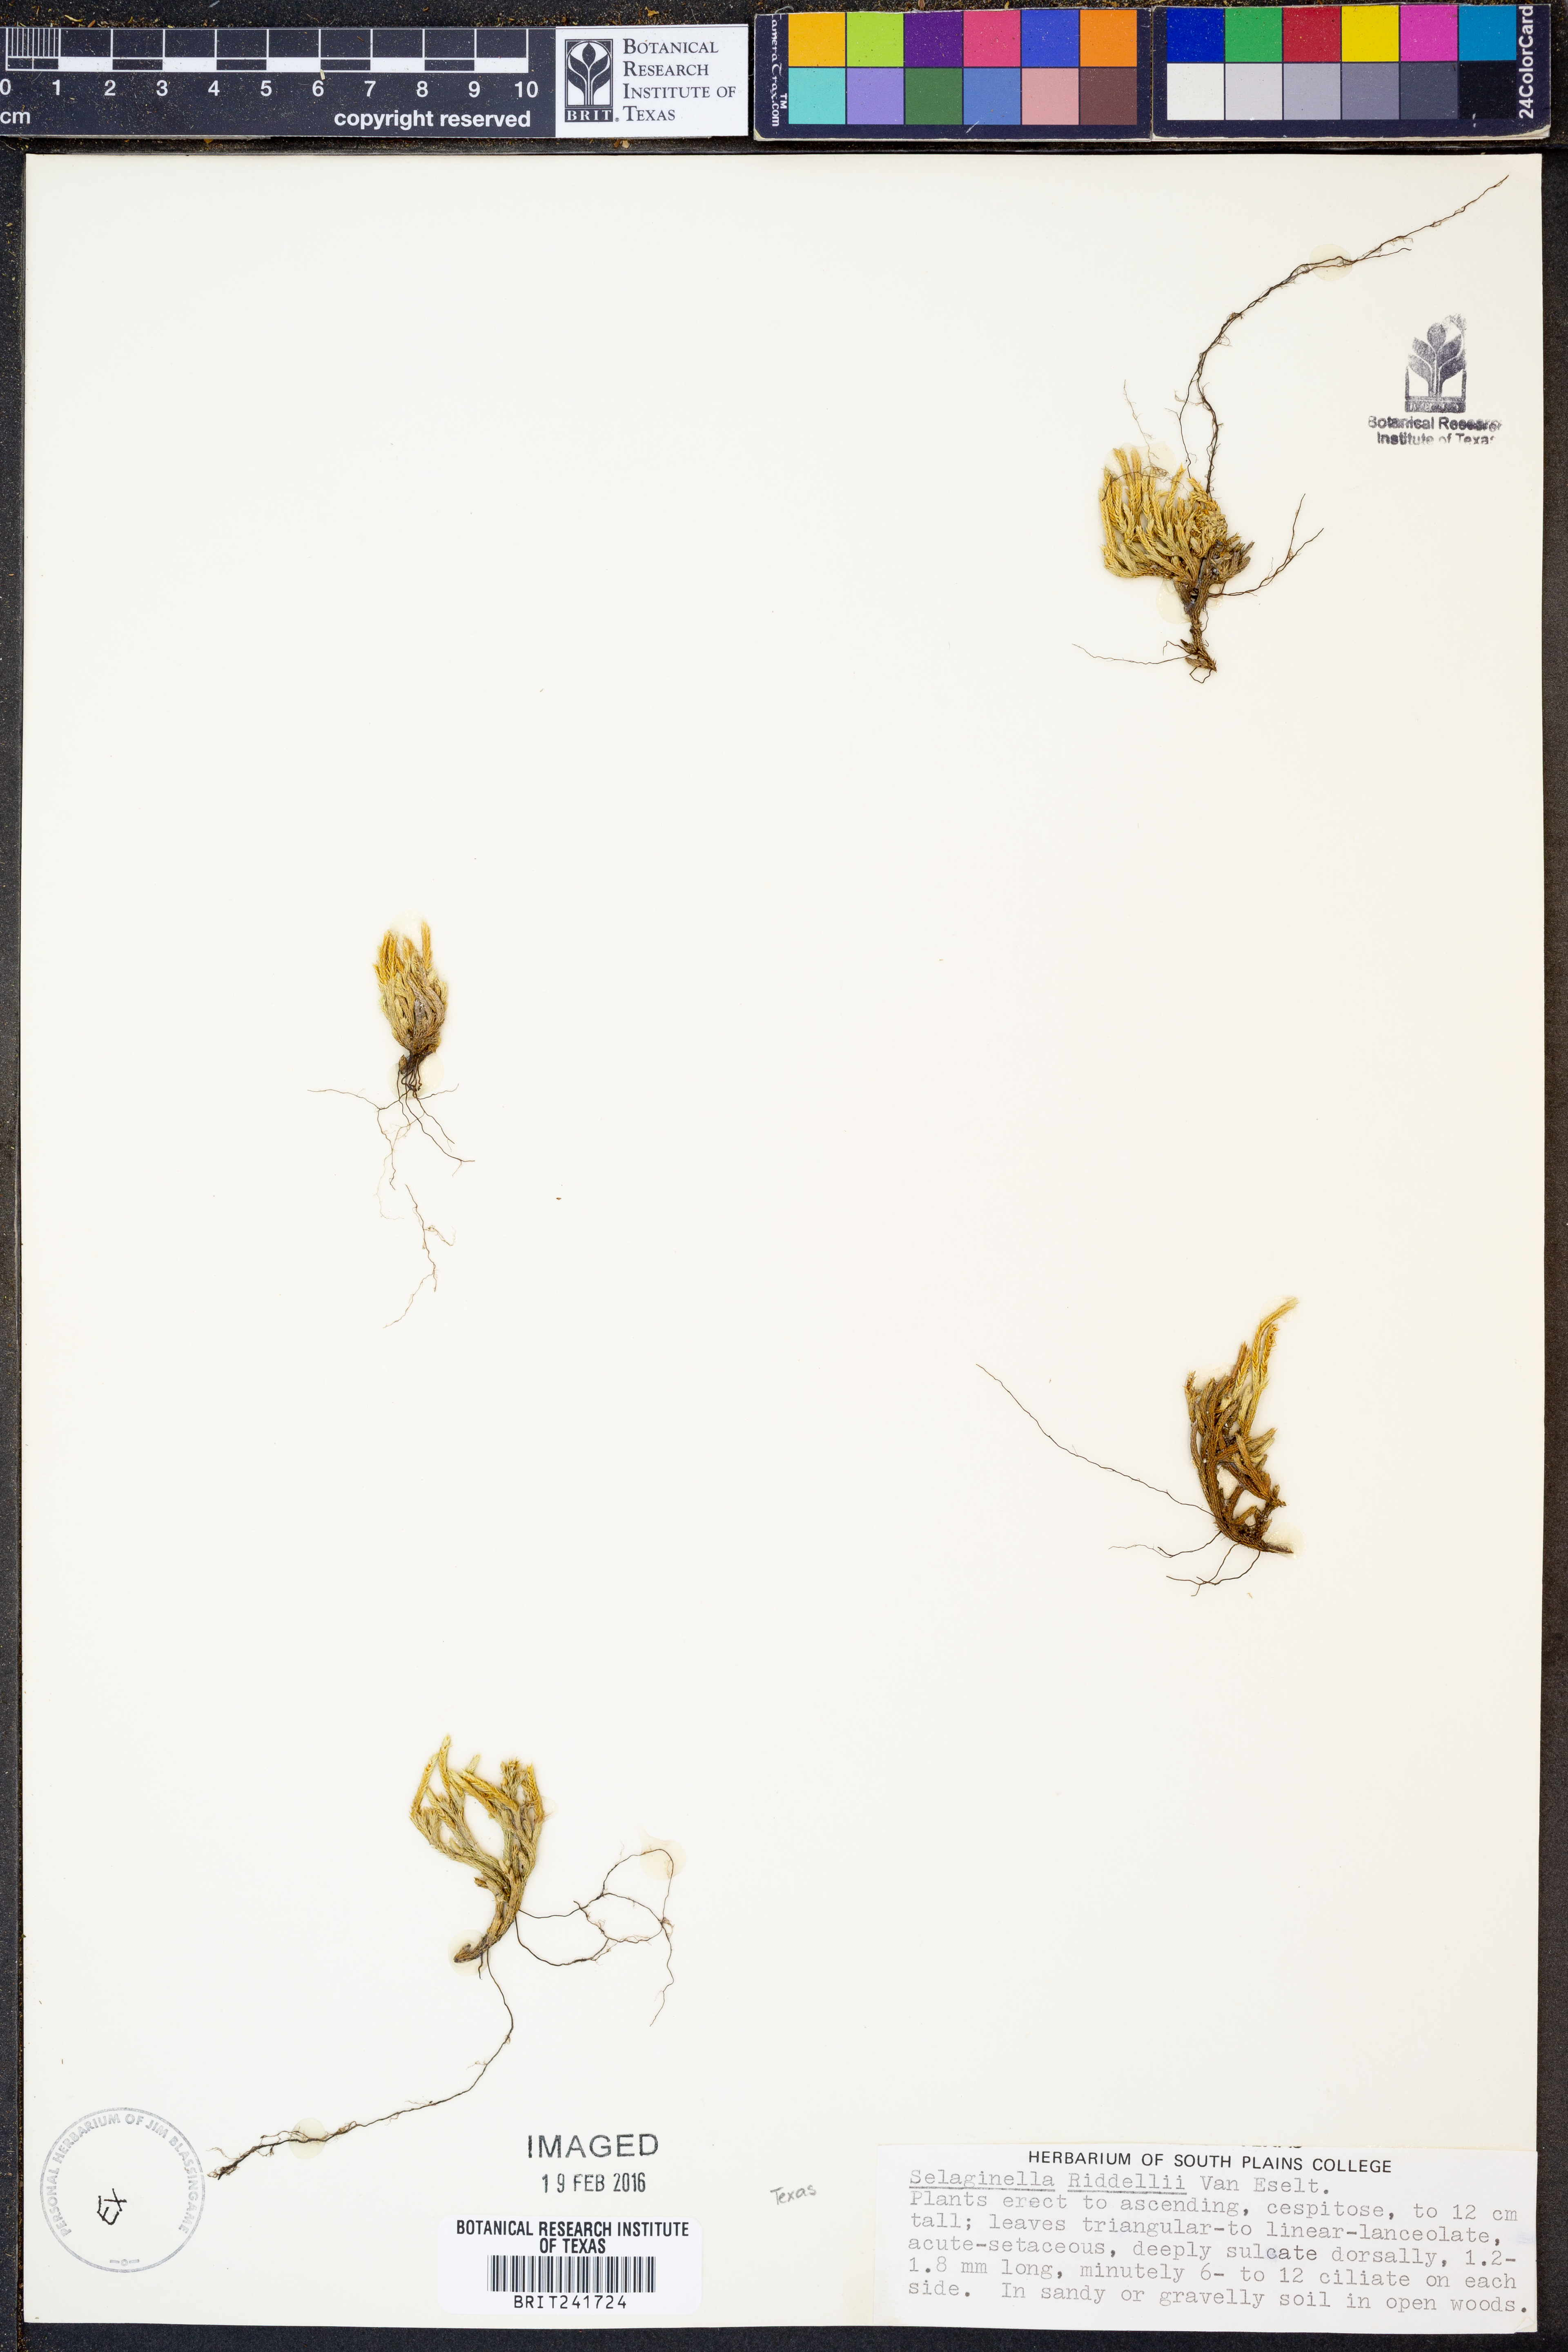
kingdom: Plantae
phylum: Tracheophyta
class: Lycopodiopsida
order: Selaginellales
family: Selaginellaceae
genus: Selaginella
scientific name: Selaginella corallina
